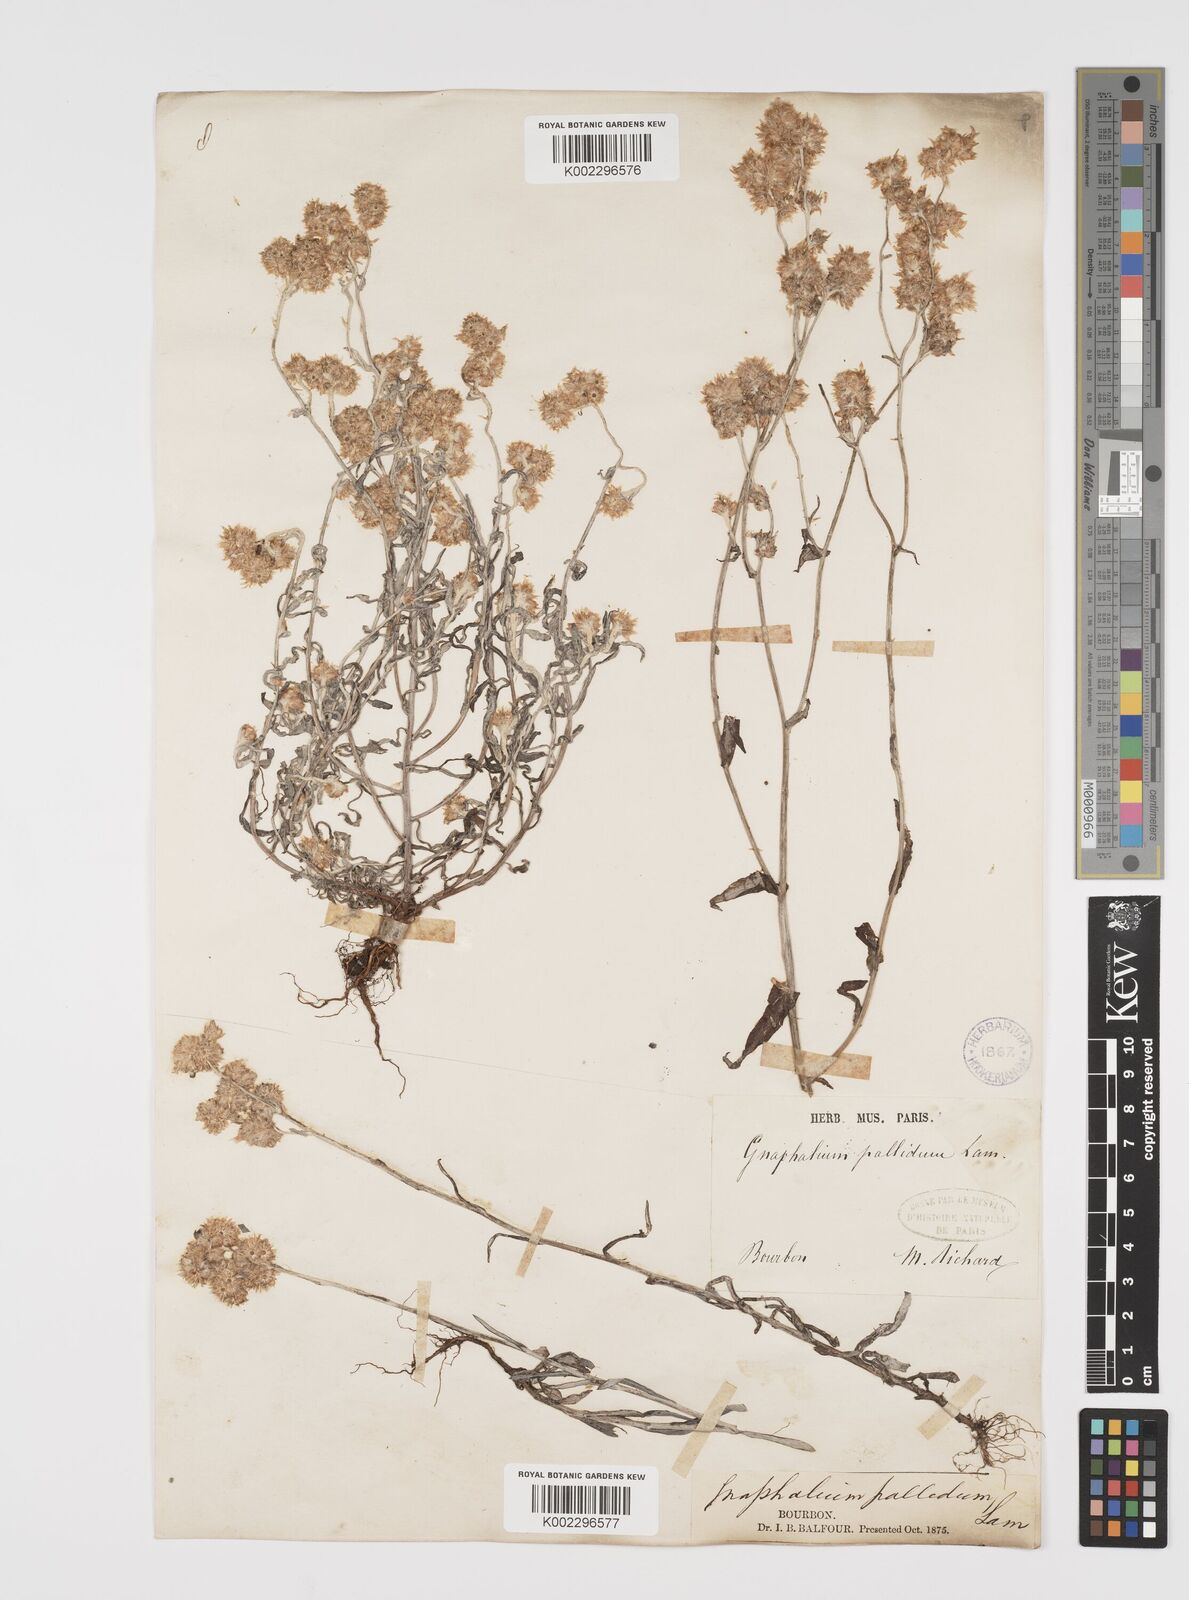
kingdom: Plantae
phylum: Tracheophyta
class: Magnoliopsida
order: Asterales
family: Asteraceae
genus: Helichrysum
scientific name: Helichrysum luteoalbum
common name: Daisy
